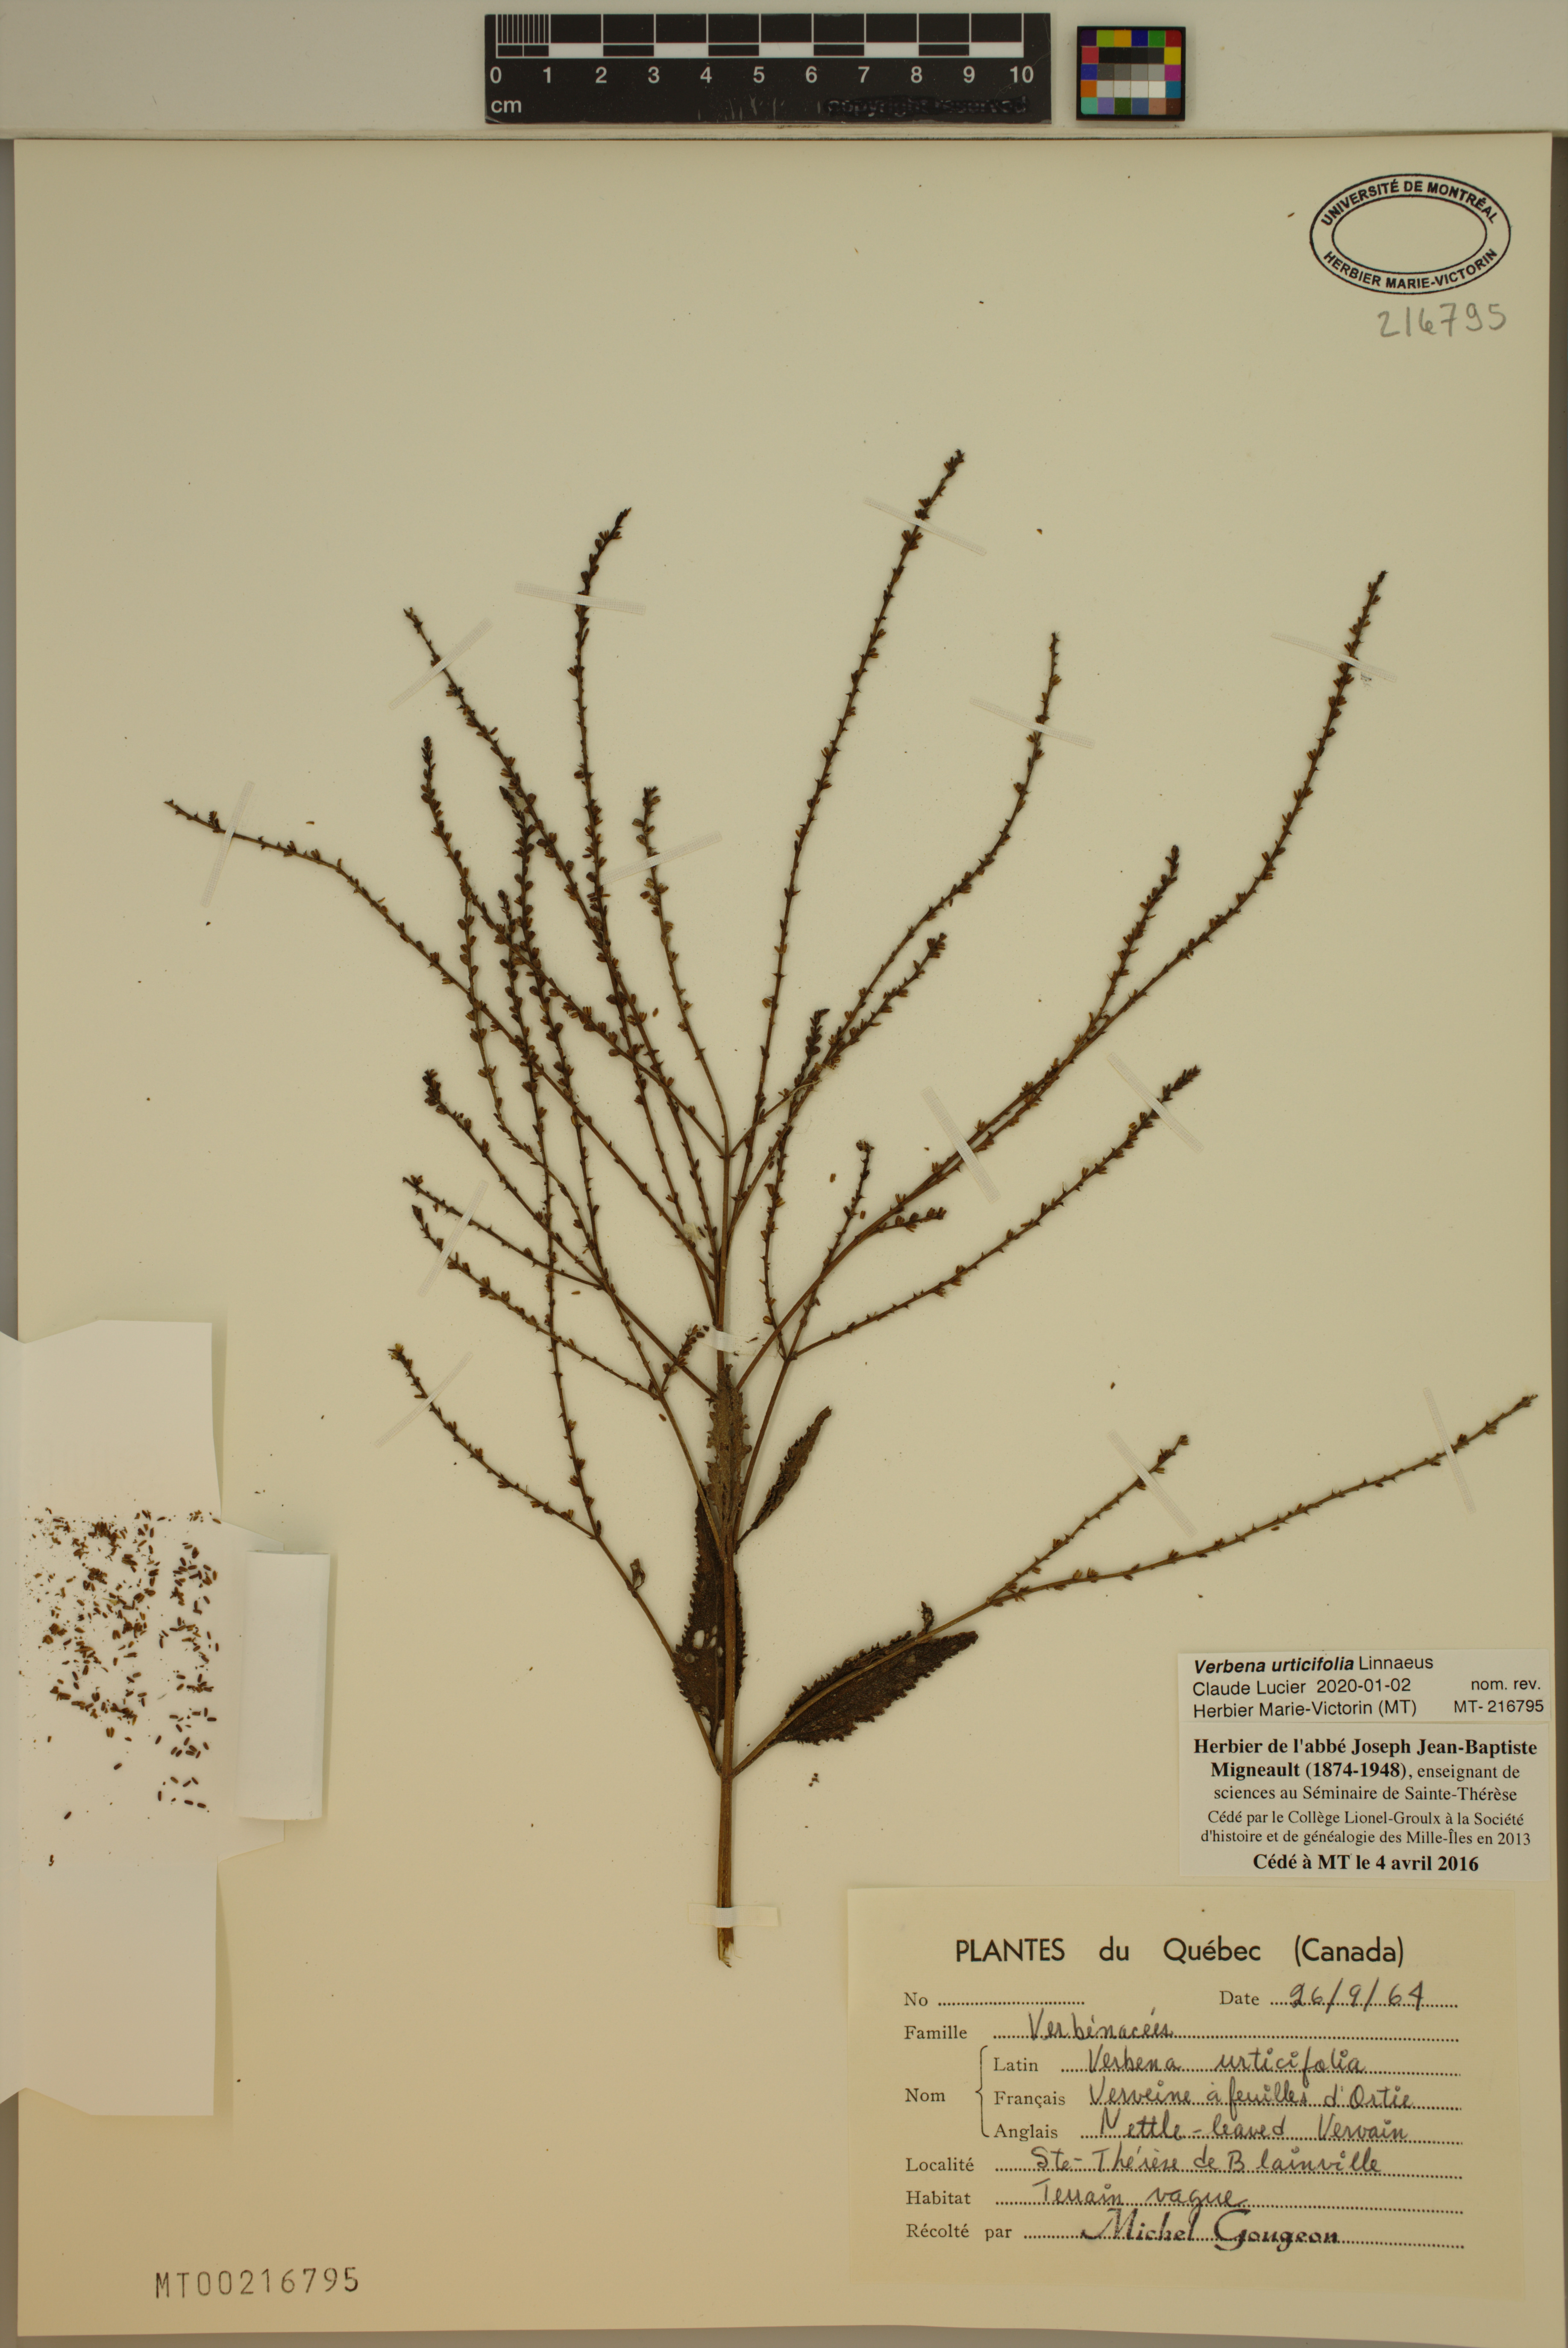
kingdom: Plantae
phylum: Tracheophyta
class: Magnoliopsida
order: Lamiales
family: Verbenaceae
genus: Verbena
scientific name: Verbena urticifolia
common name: Nettle-leaved vervain
